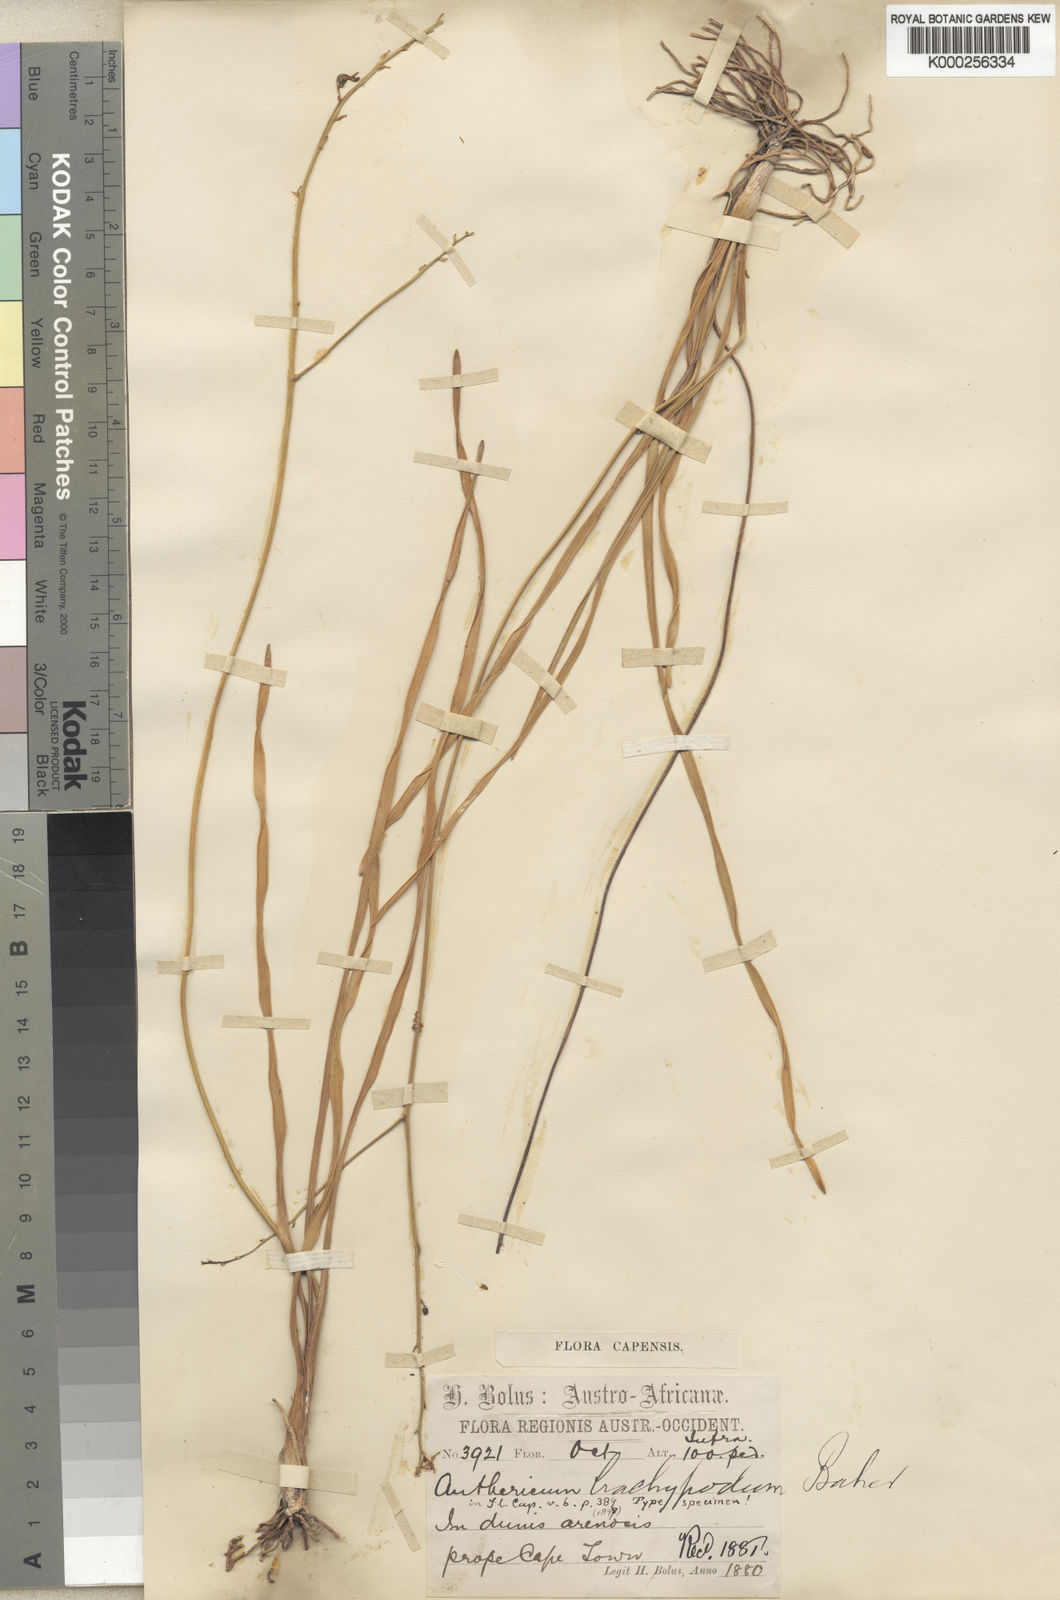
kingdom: Plantae
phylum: Tracheophyta
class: Liliopsida
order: Asparagales
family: Asphodelaceae
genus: Trachyandra
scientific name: Trachyandra brachypoda
